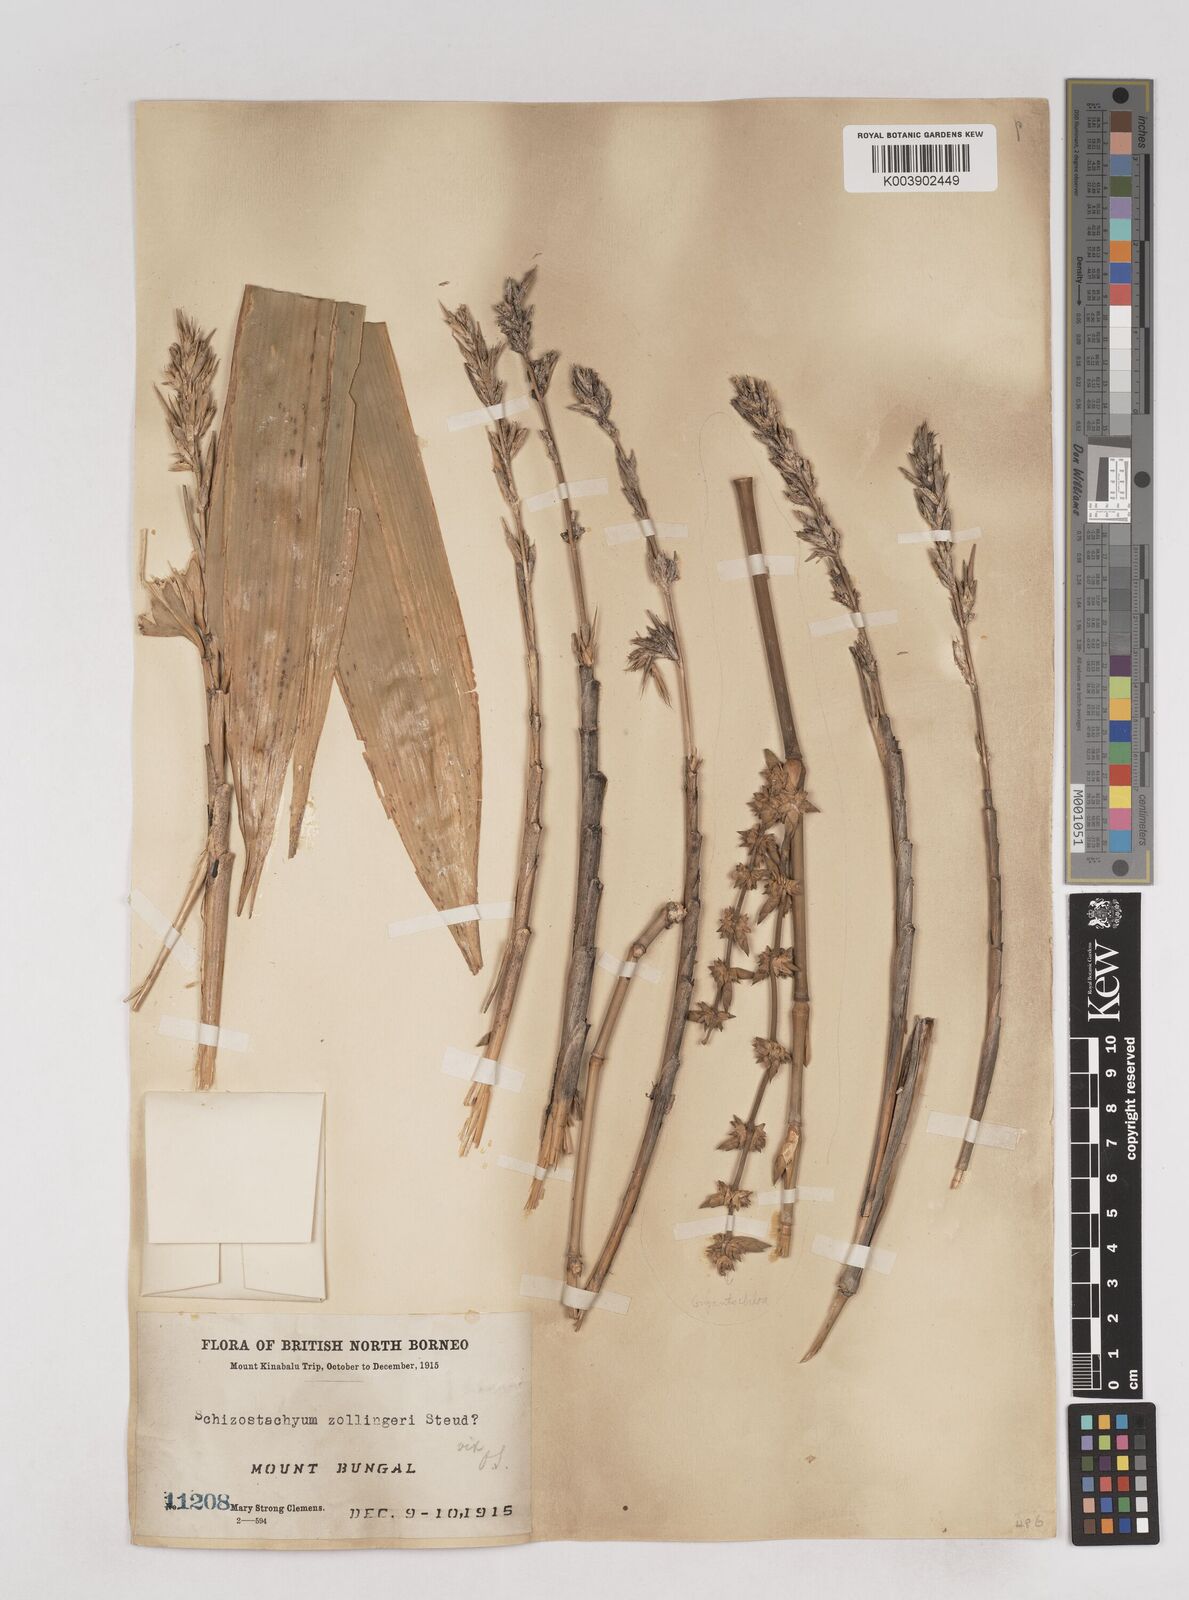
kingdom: Plantae
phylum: Tracheophyta
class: Liliopsida
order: Poales
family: Poaceae
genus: Schizostachyum
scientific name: Schizostachyum
